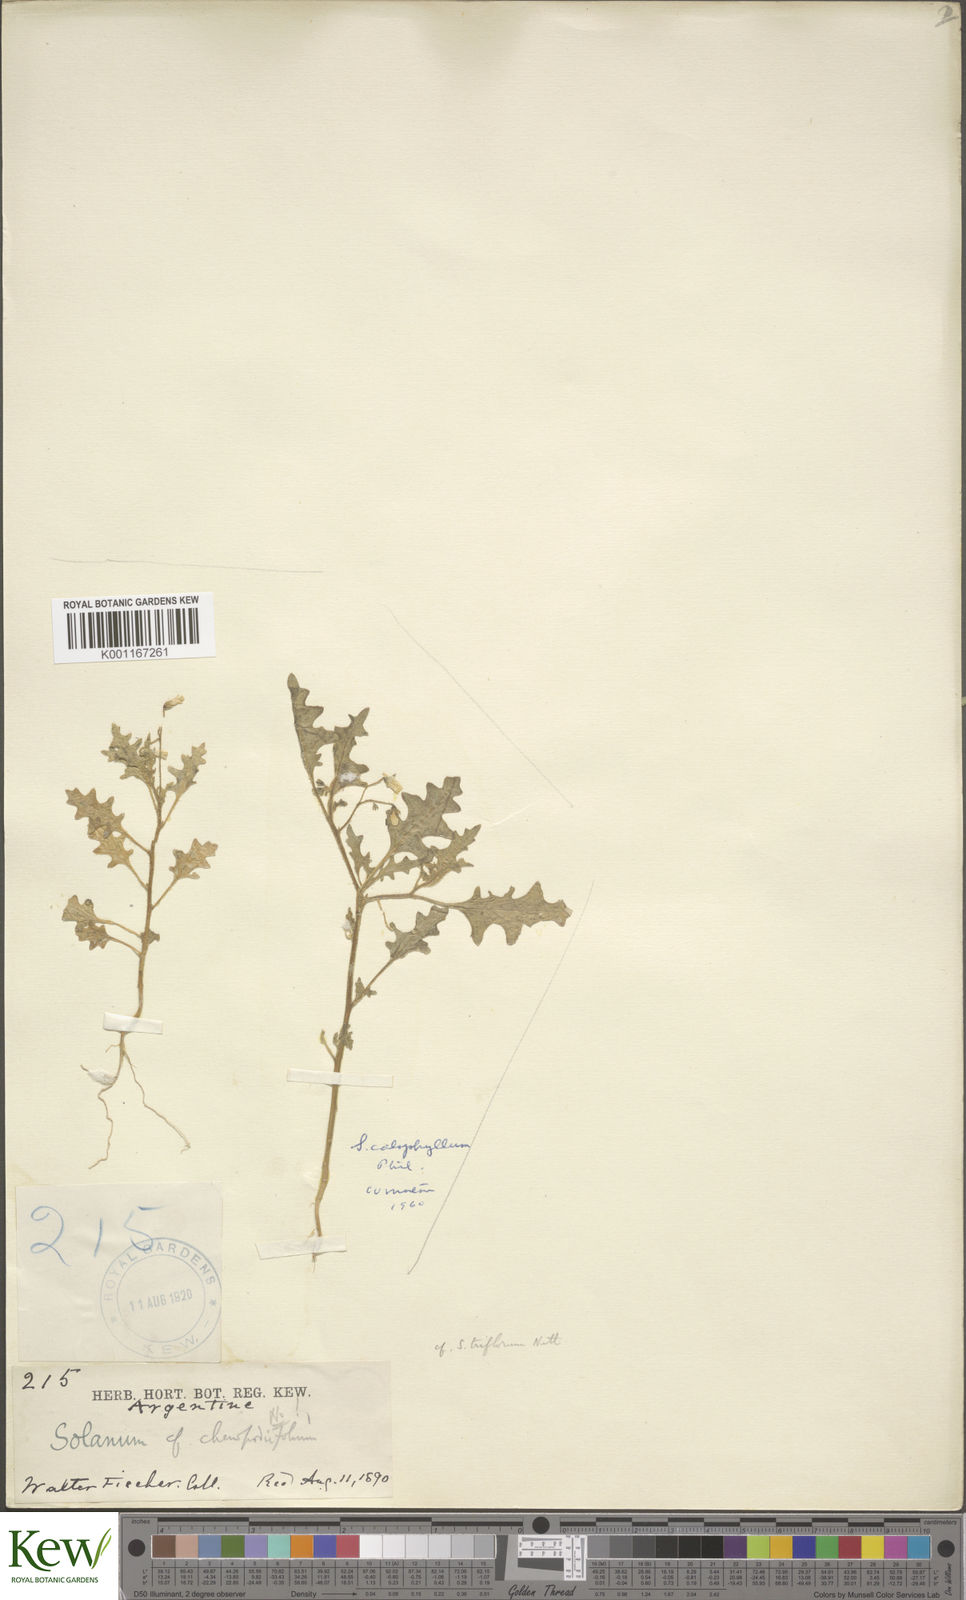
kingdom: Plantae
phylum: Tracheophyta
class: Magnoliopsida
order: Solanales
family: Solanaceae
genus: Solanum
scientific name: Solanum triflorum
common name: Small nightshade
